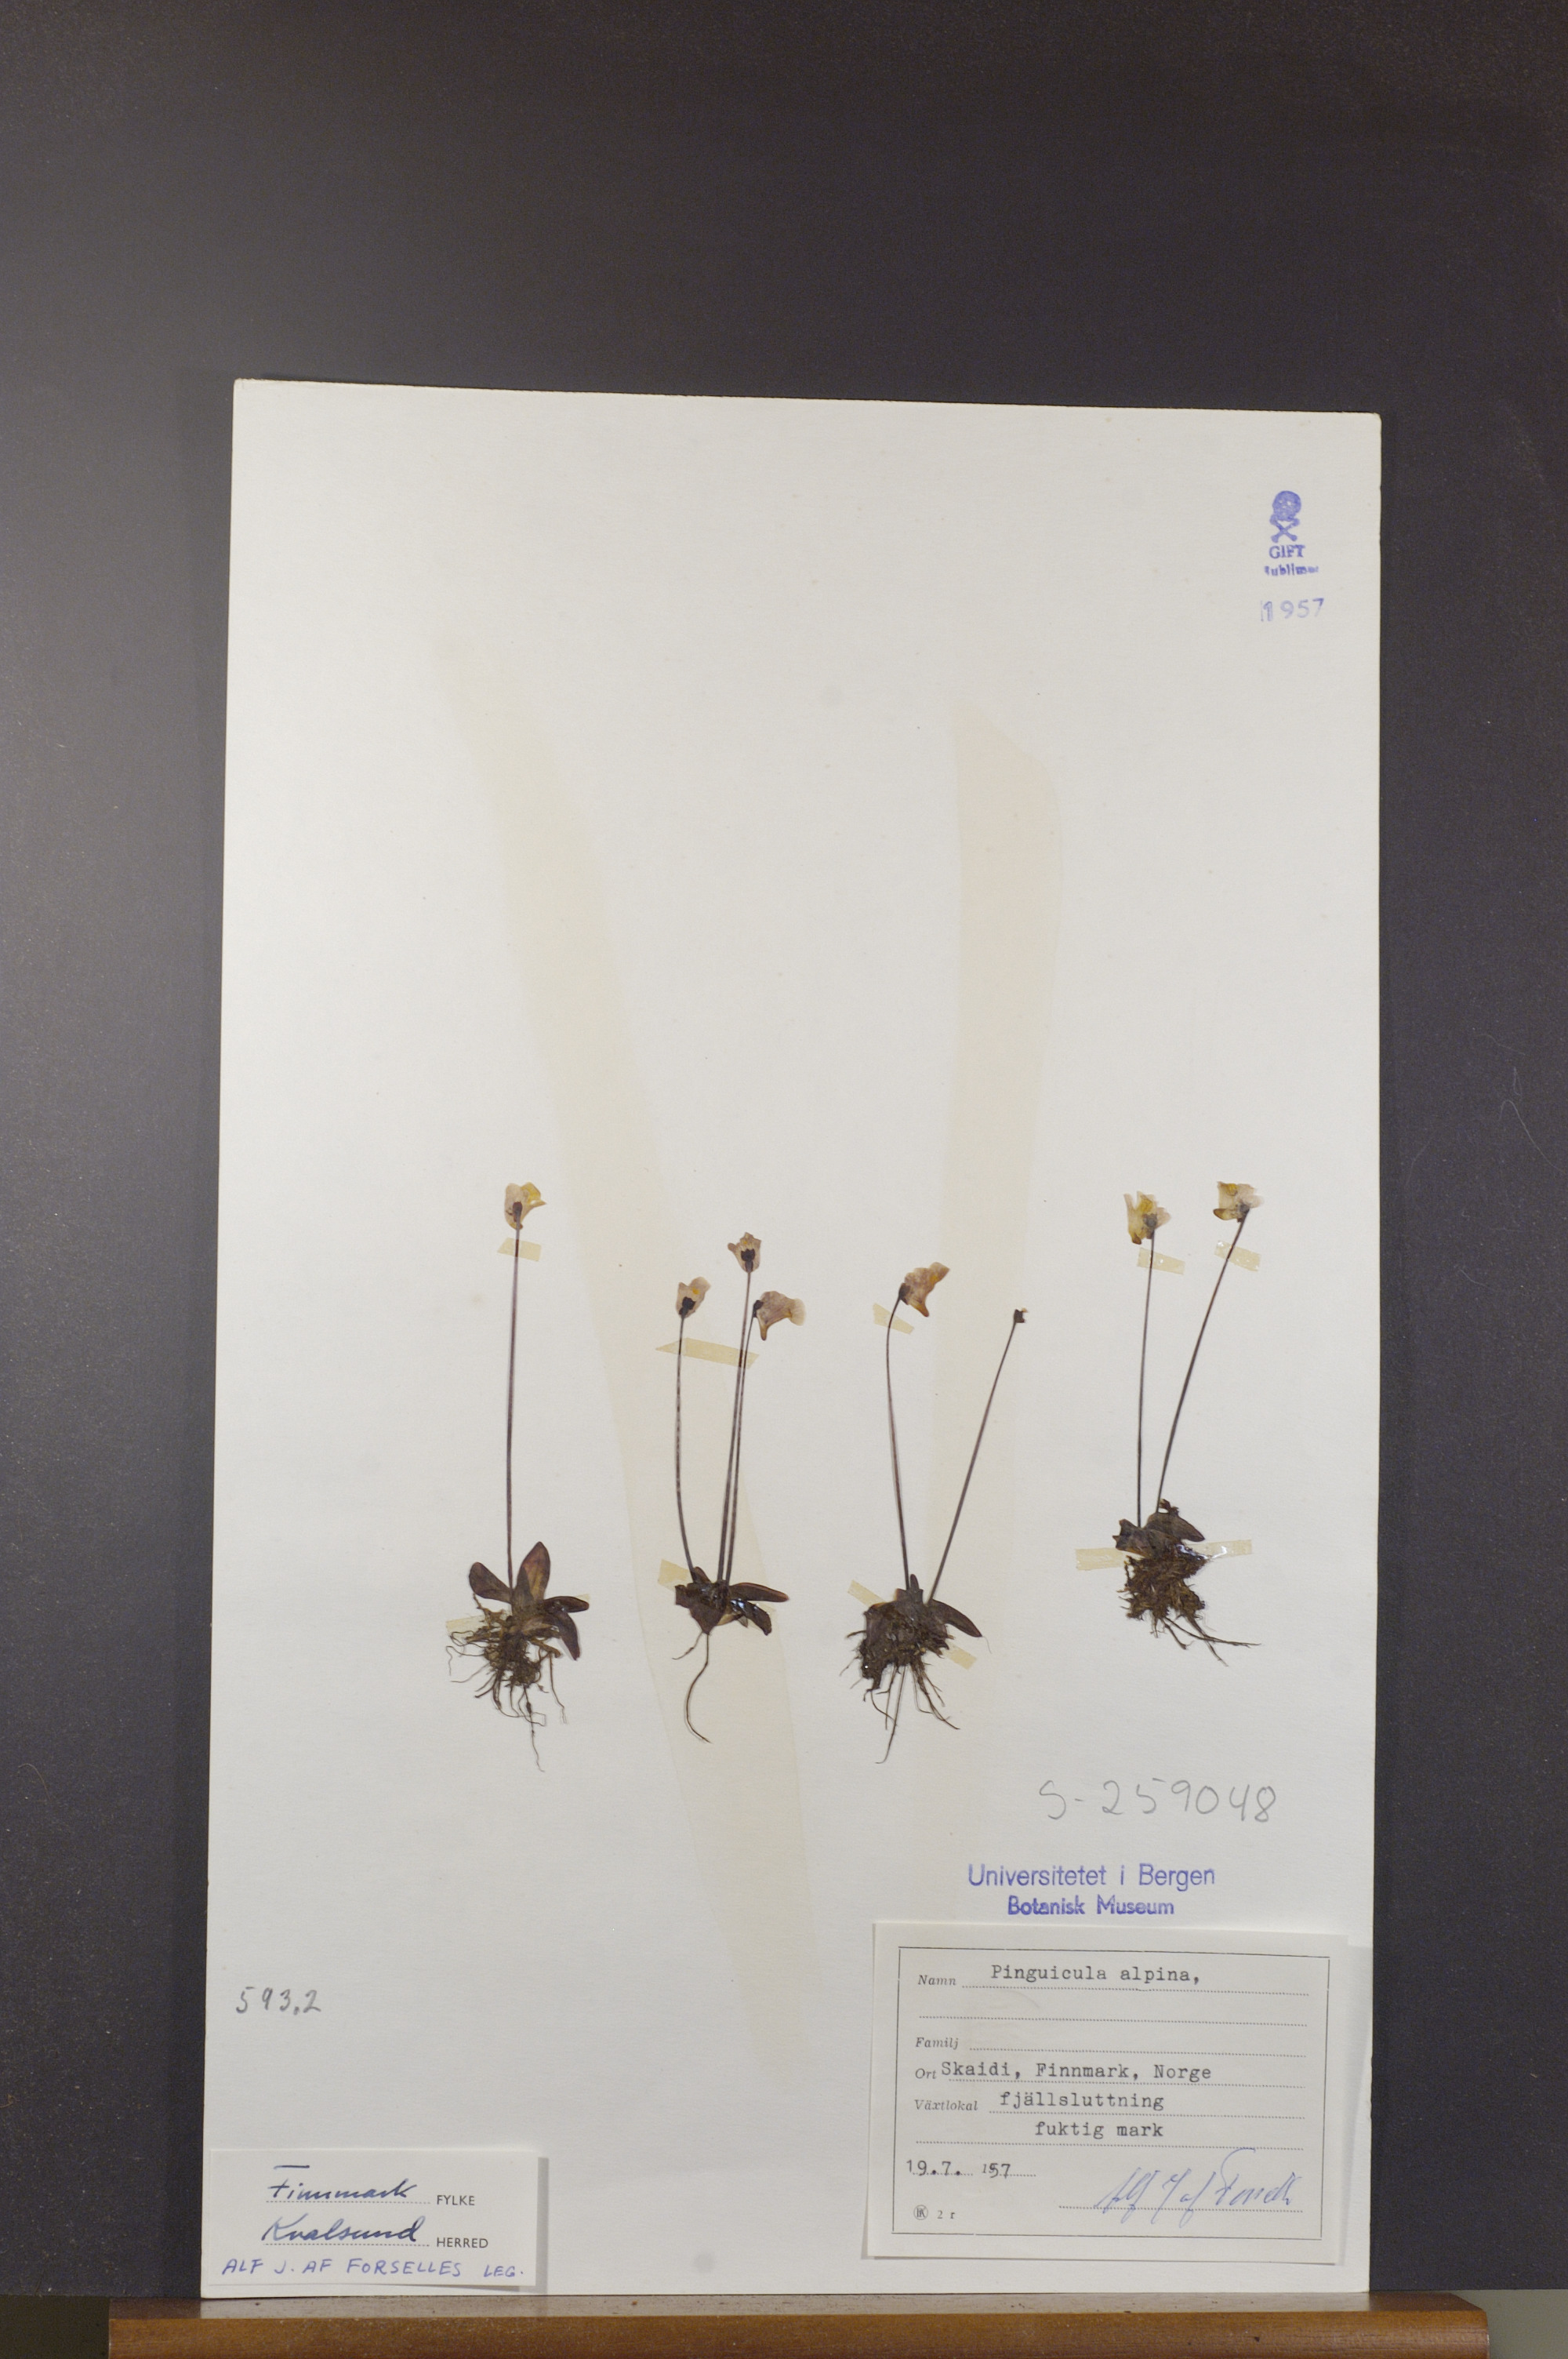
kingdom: Plantae
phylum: Tracheophyta
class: Magnoliopsida
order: Lamiales
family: Lentibulariaceae
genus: Pinguicula
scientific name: Pinguicula alpina
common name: Alpine butterwort
